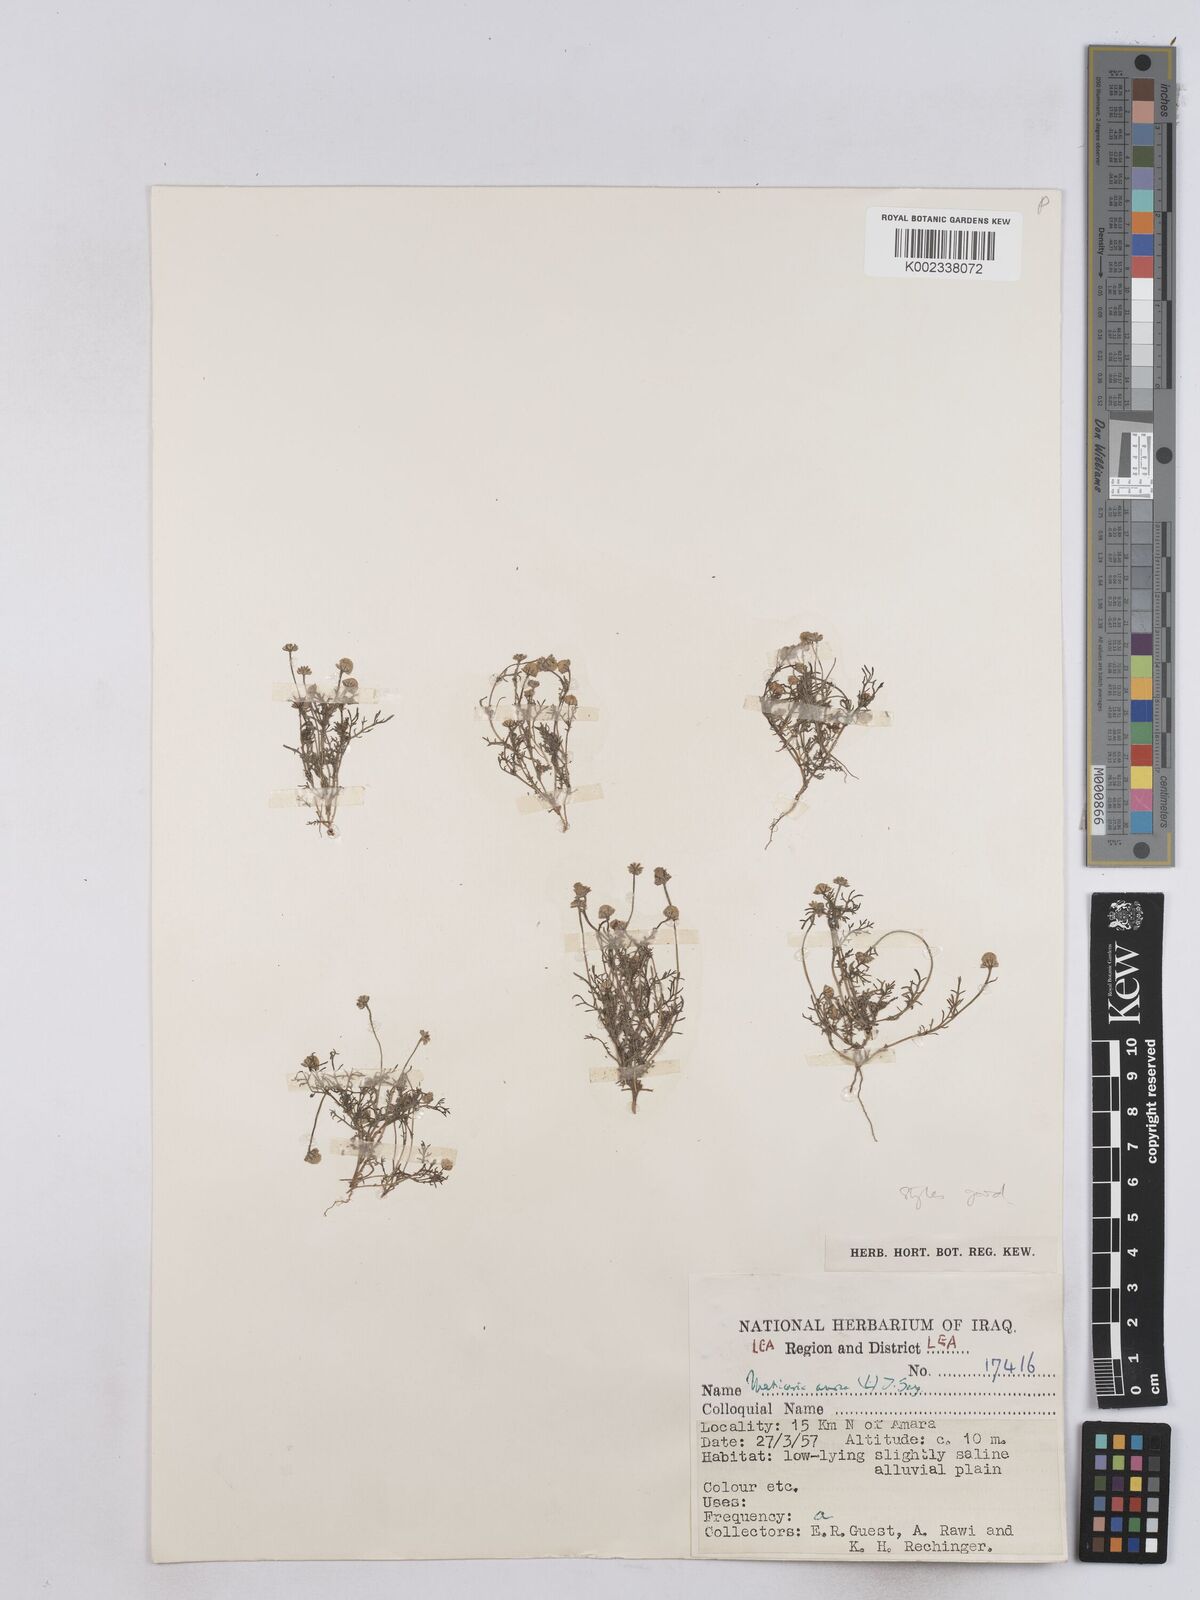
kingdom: Plantae
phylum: Tracheophyta
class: Magnoliopsida
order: Asterales
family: Asteraceae
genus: Matricaria
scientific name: Matricaria aurea
